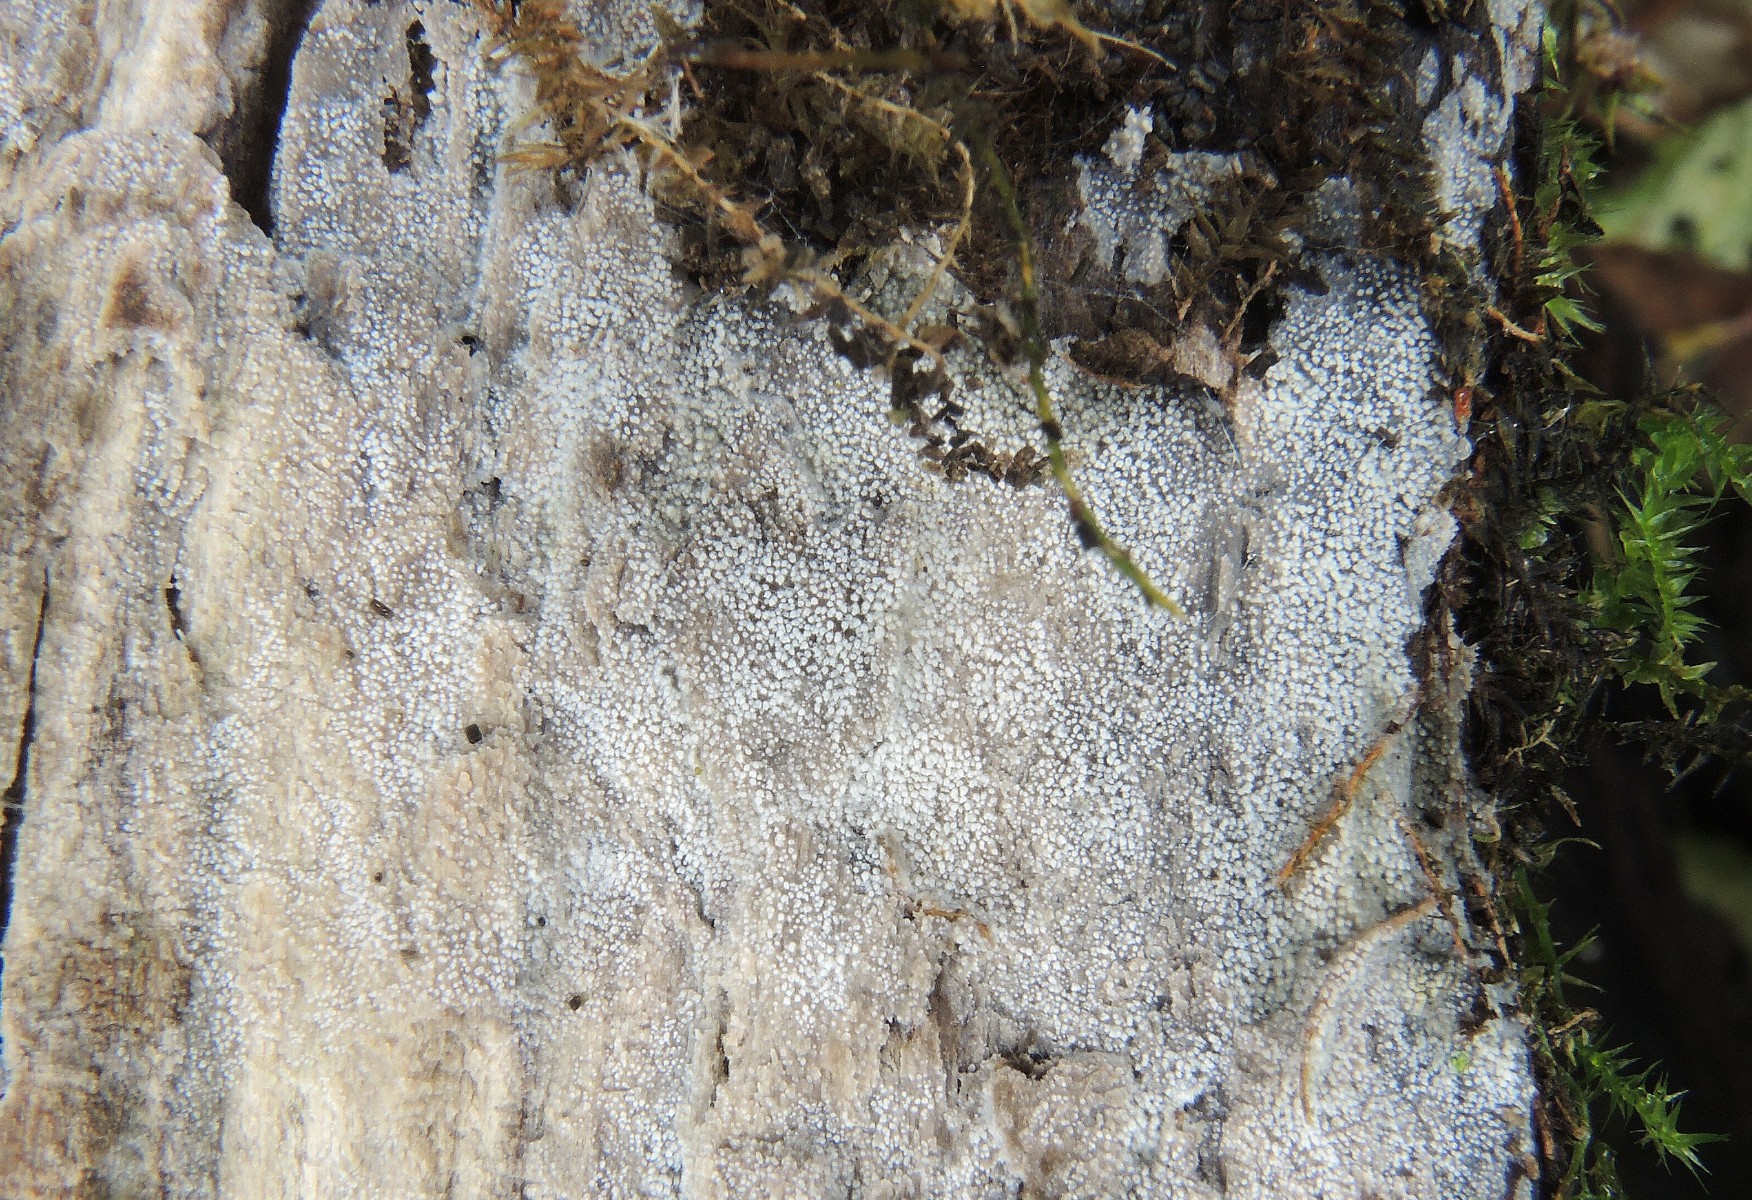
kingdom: Fungi
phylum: Basidiomycota
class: Agaricomycetes
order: Polyporales
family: Meruliaceae
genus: Scopuloides
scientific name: Scopuloides rimosa
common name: dughinde
